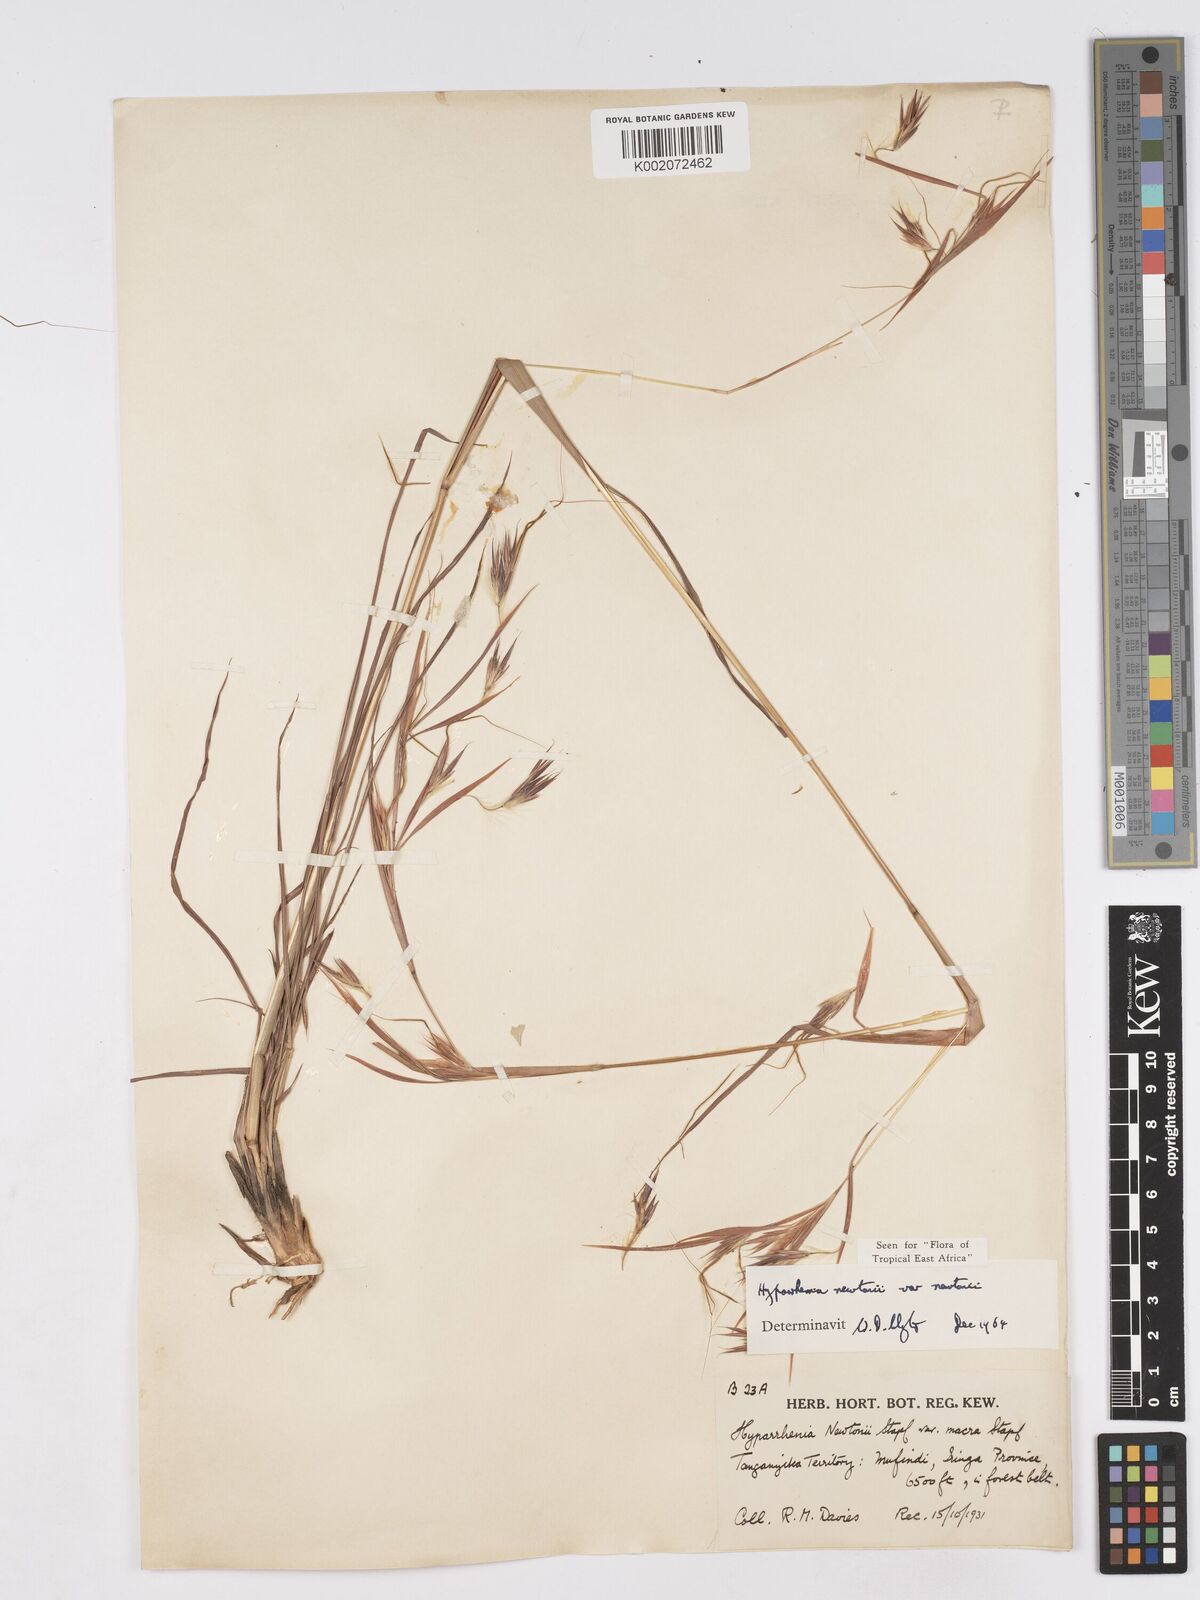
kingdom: Plantae
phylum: Tracheophyta
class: Liliopsida
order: Poales
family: Poaceae
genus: Hyparrhenia
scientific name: Hyparrhenia newtonii
